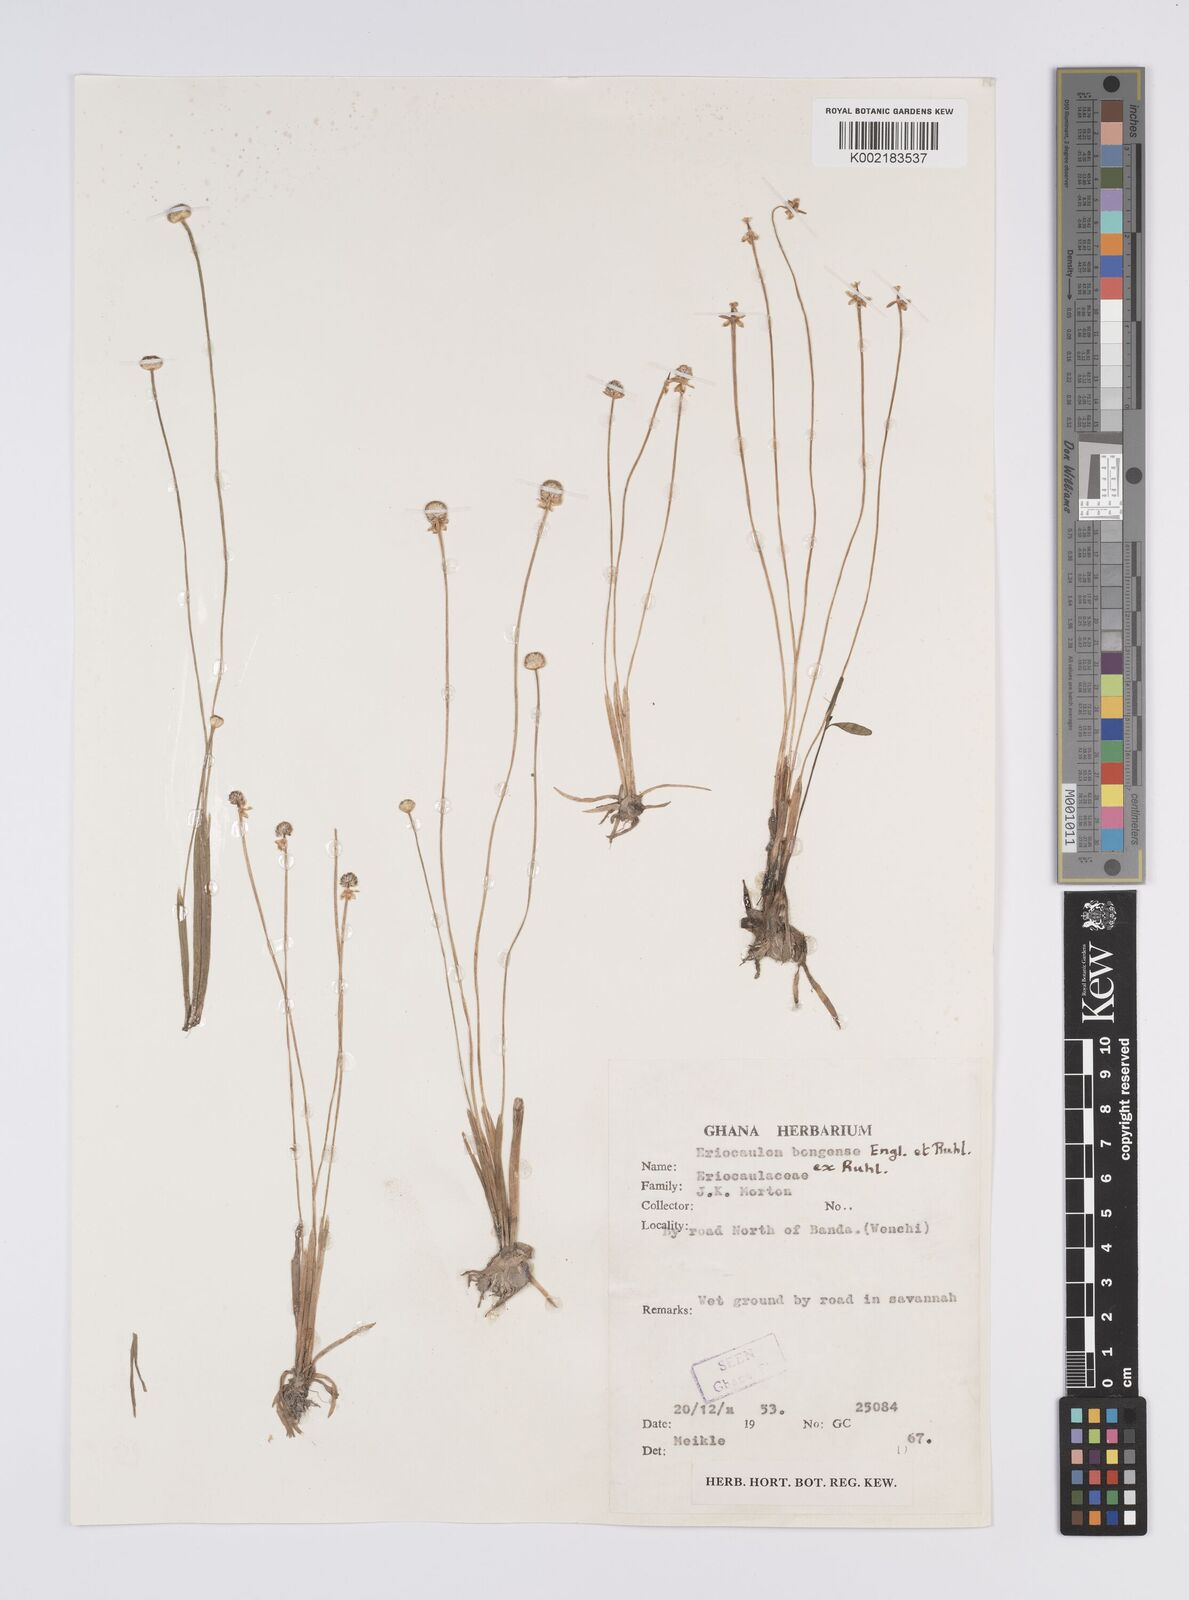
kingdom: Plantae
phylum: Tracheophyta
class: Liliopsida
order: Poales
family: Eriocaulaceae
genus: Eriocaulon
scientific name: Eriocaulon bongense
